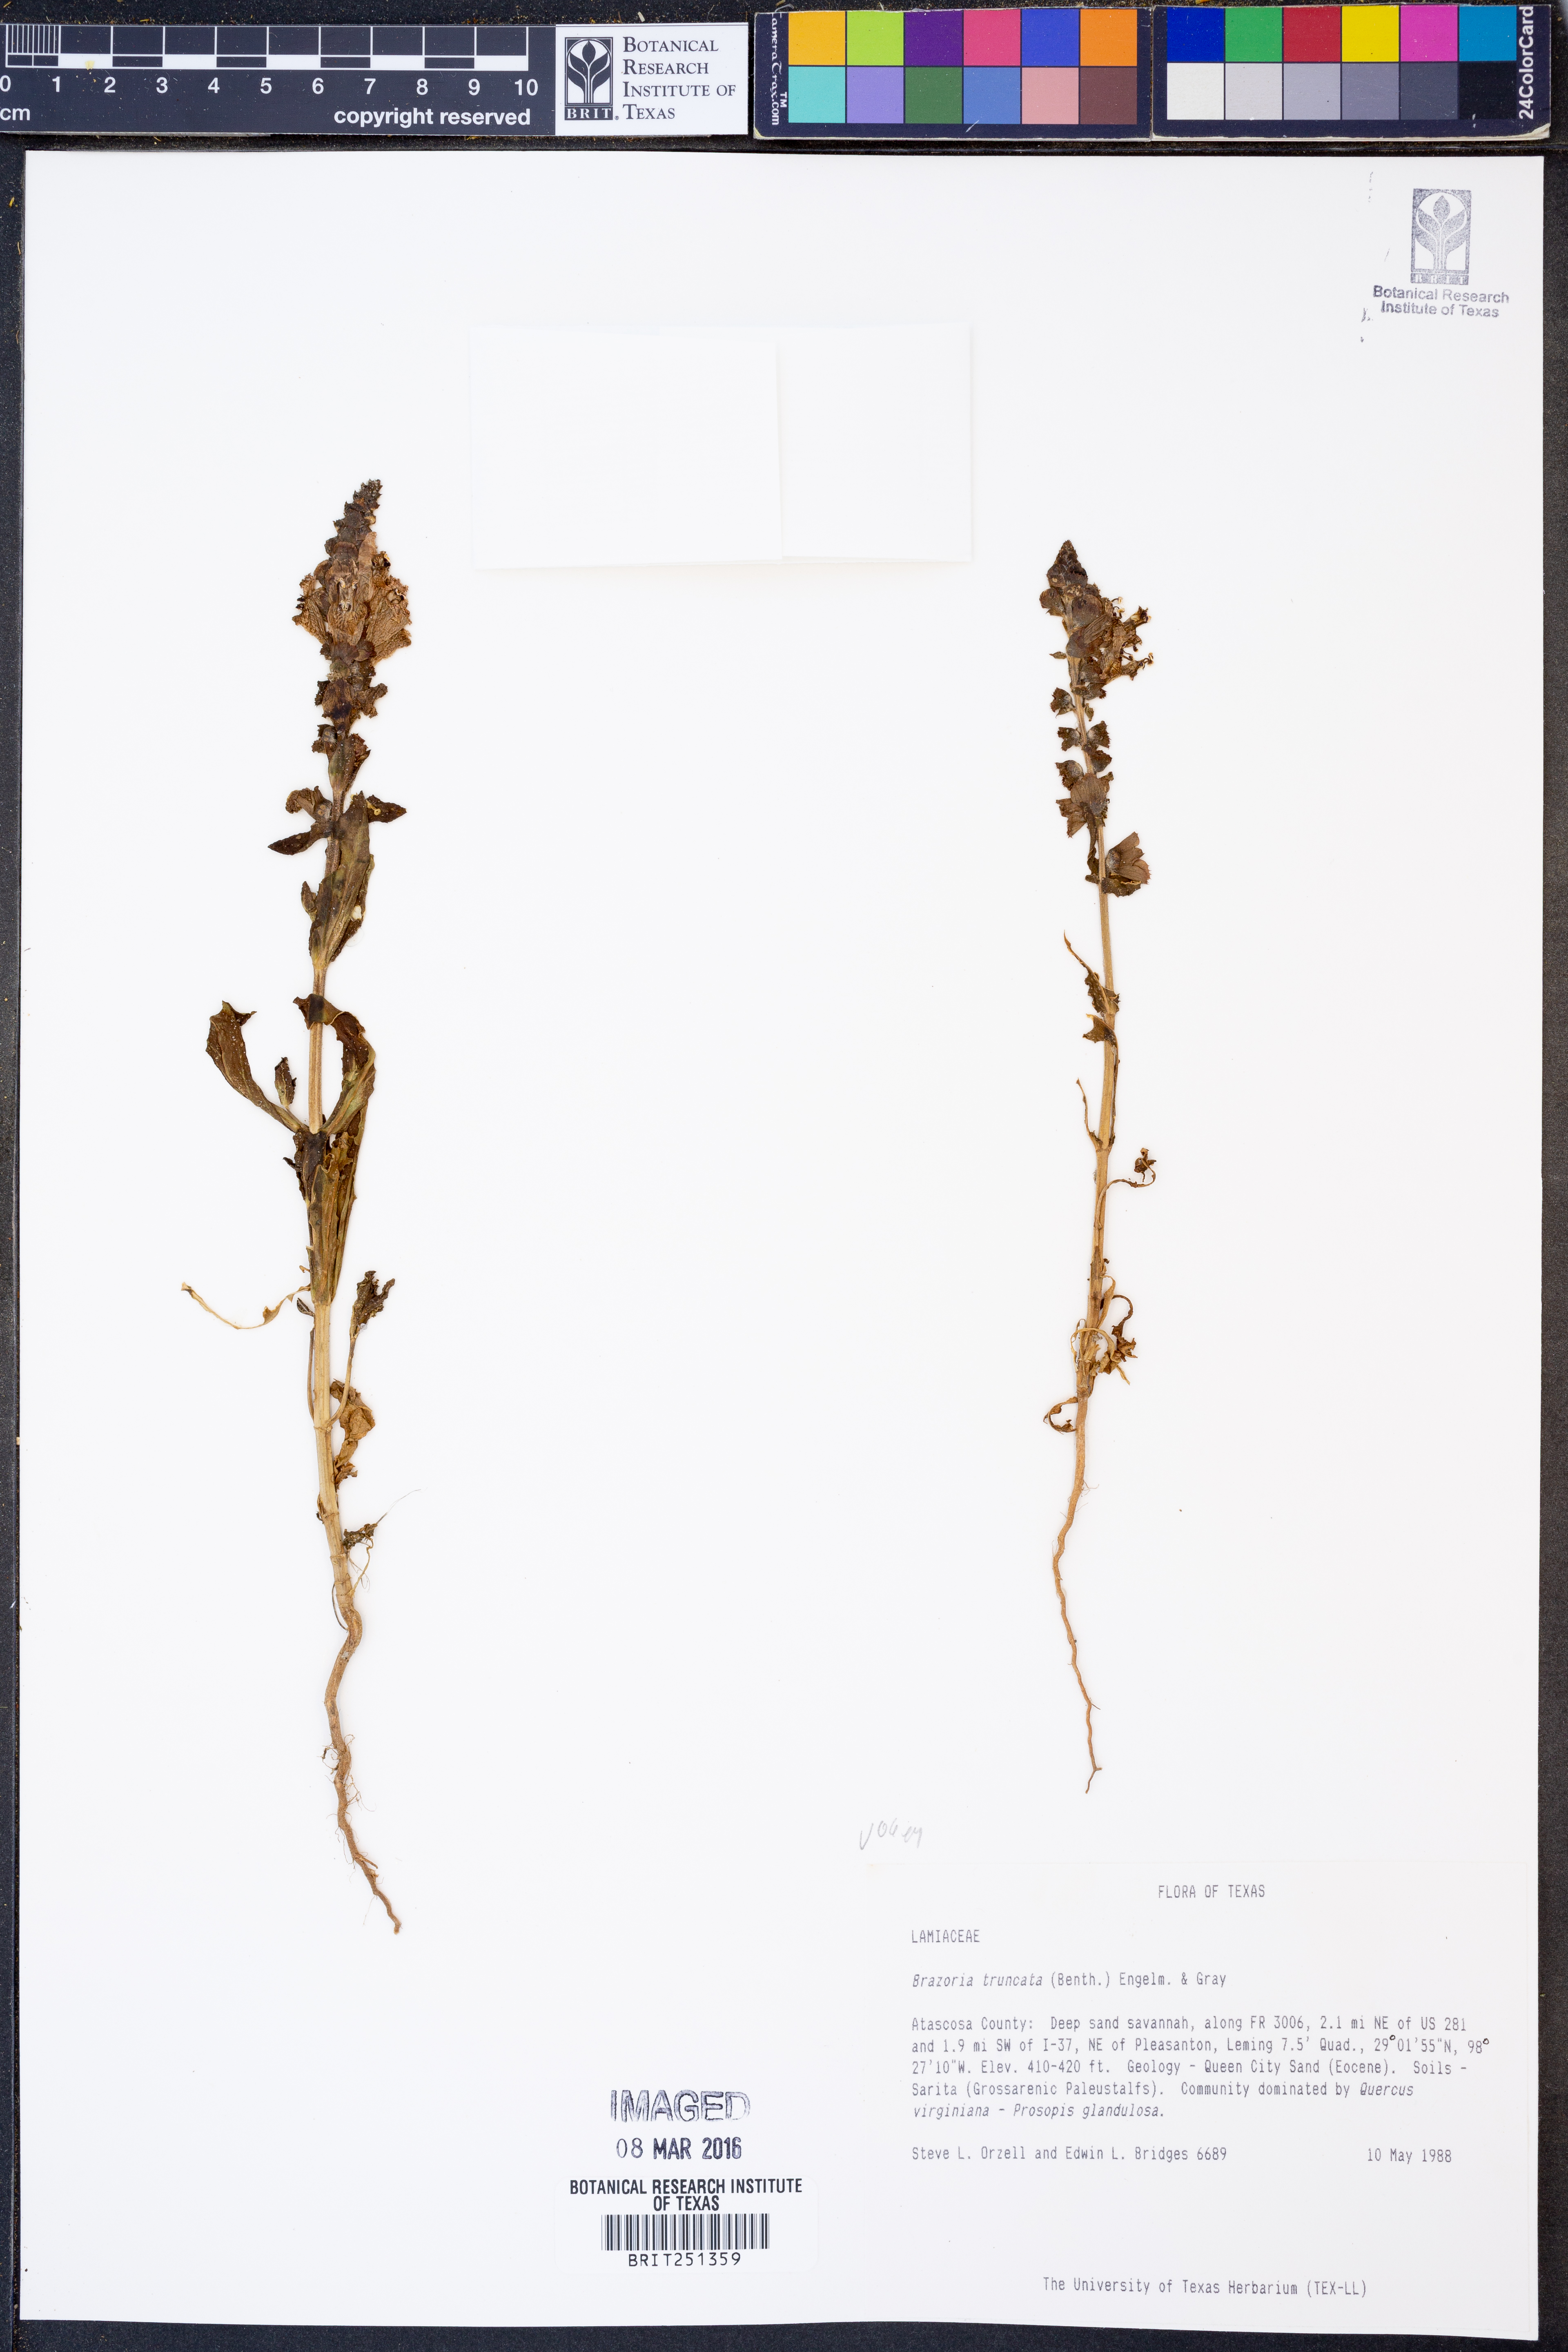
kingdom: Plantae
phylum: Tracheophyta
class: Magnoliopsida
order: Lamiales
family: Lamiaceae
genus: Brazoria
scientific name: Brazoria truncata
